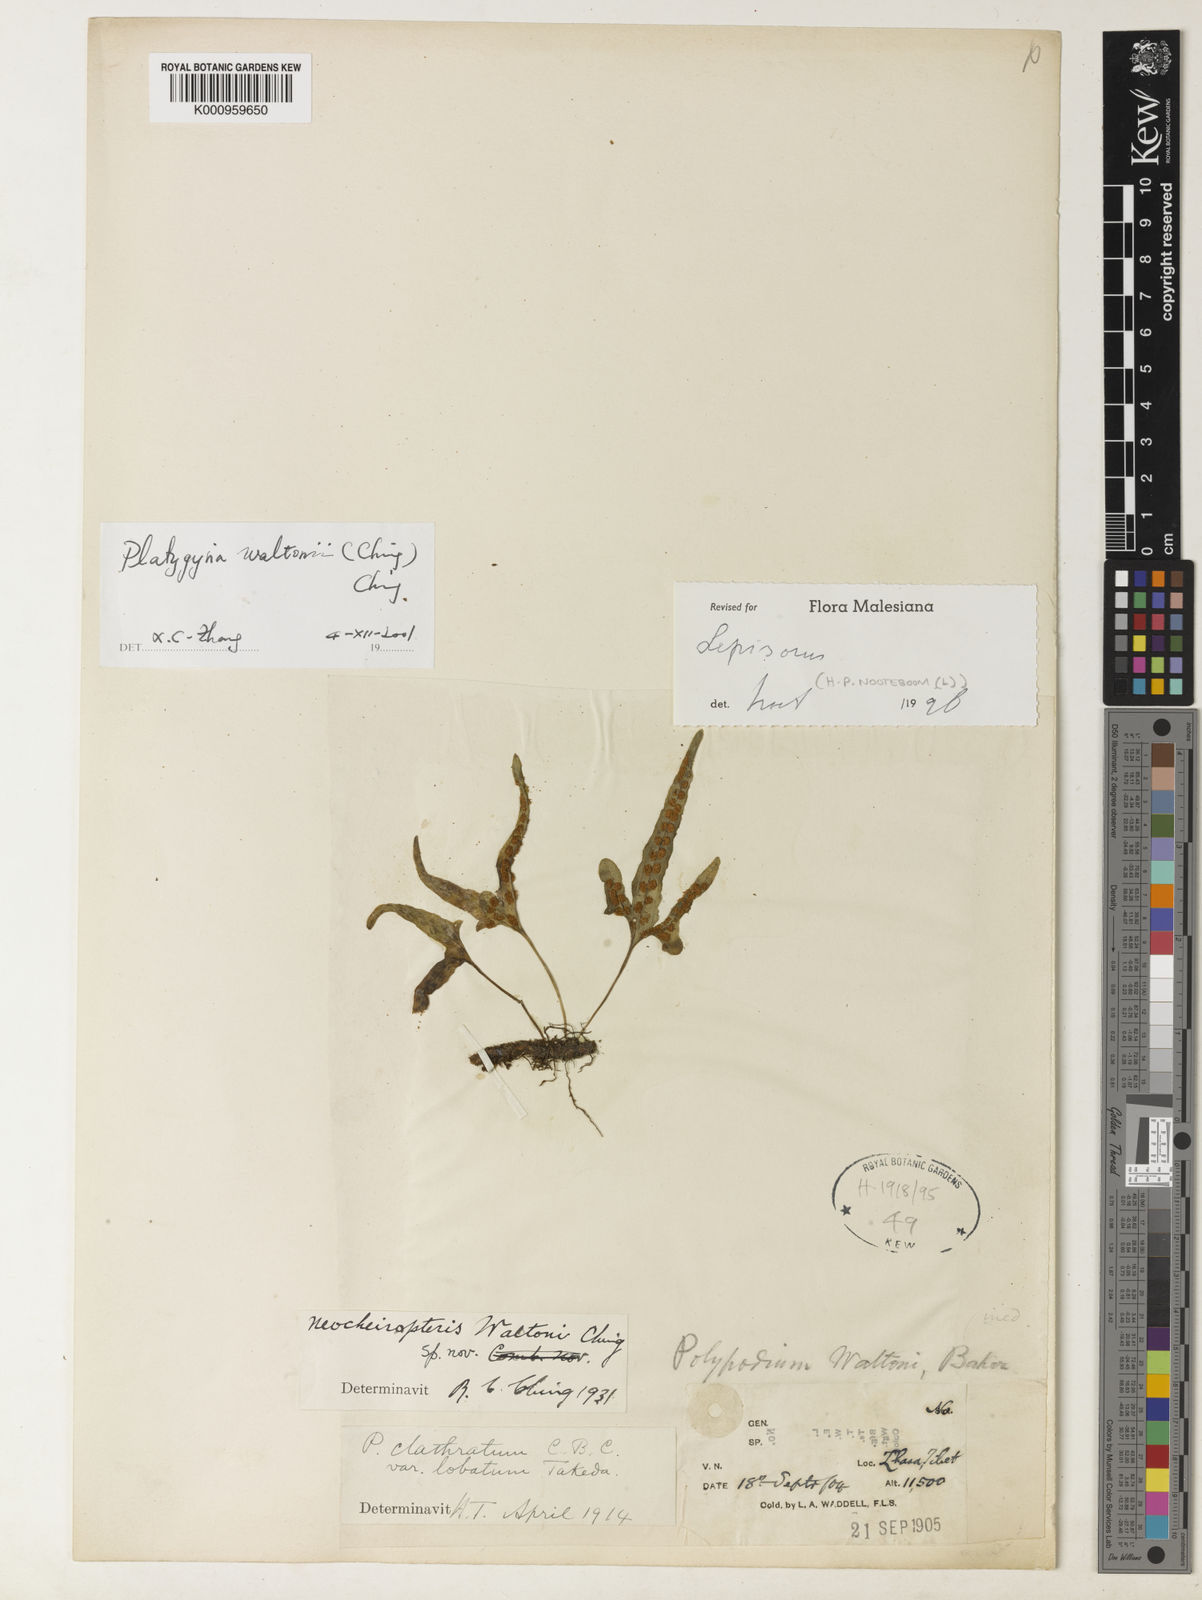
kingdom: Plantae
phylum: Tracheophyta
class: Polypodiopsida
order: Polypodiales
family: Polypodiaceae
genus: Lepisorus
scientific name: Lepisorus waltonii
